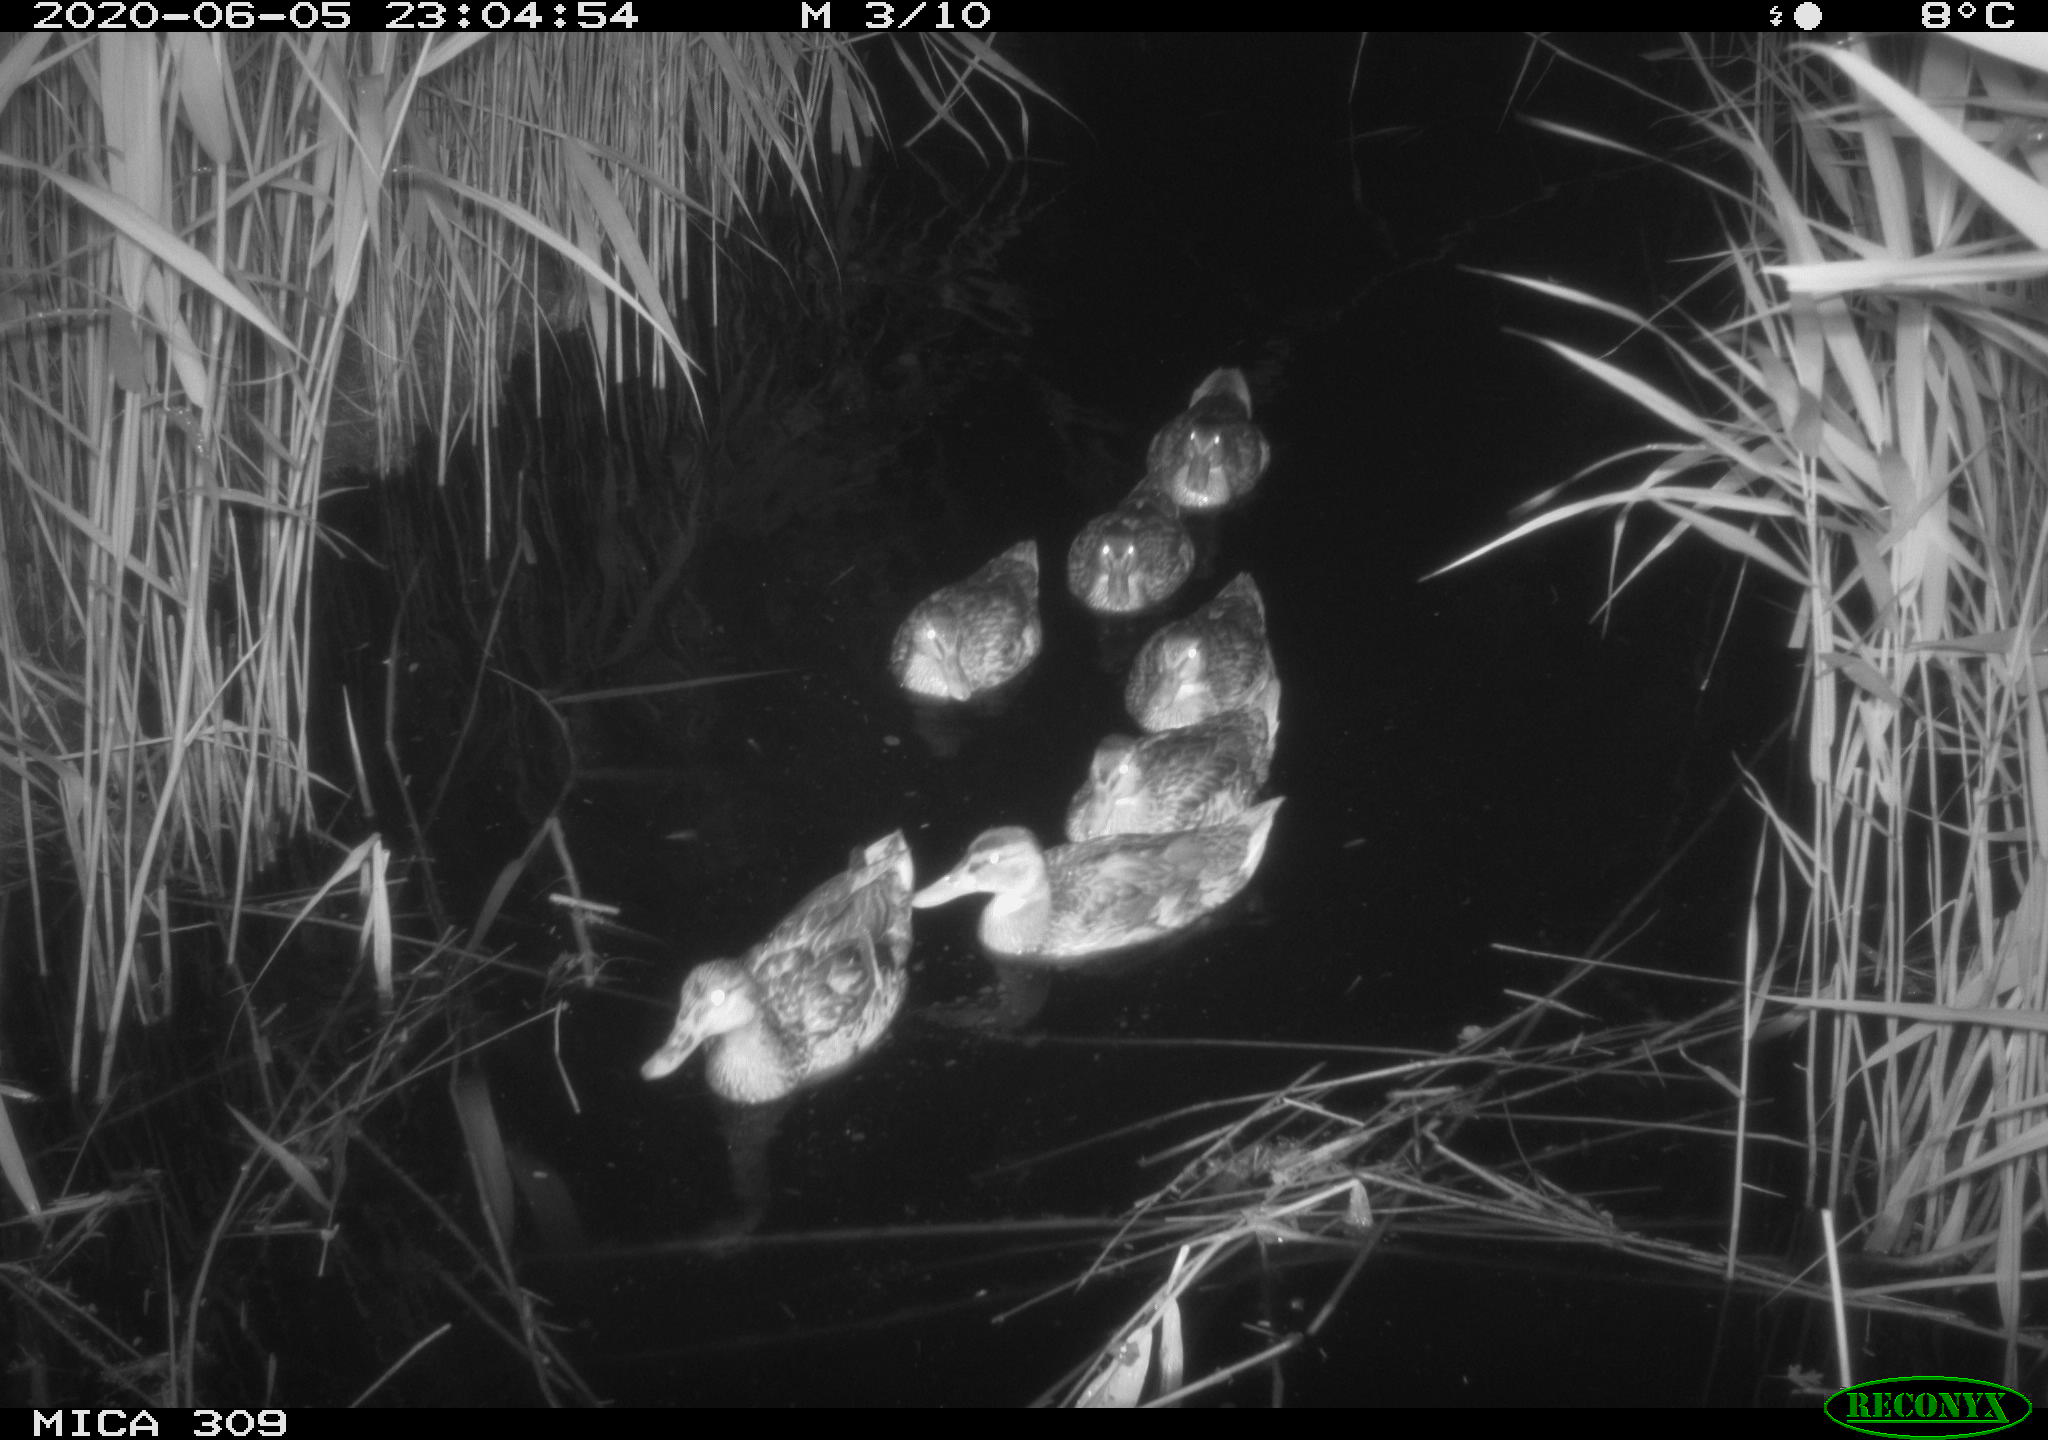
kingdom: Animalia
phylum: Chordata
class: Aves
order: Anseriformes
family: Anatidae
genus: Anas
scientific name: Anas platyrhynchos
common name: Mallard
